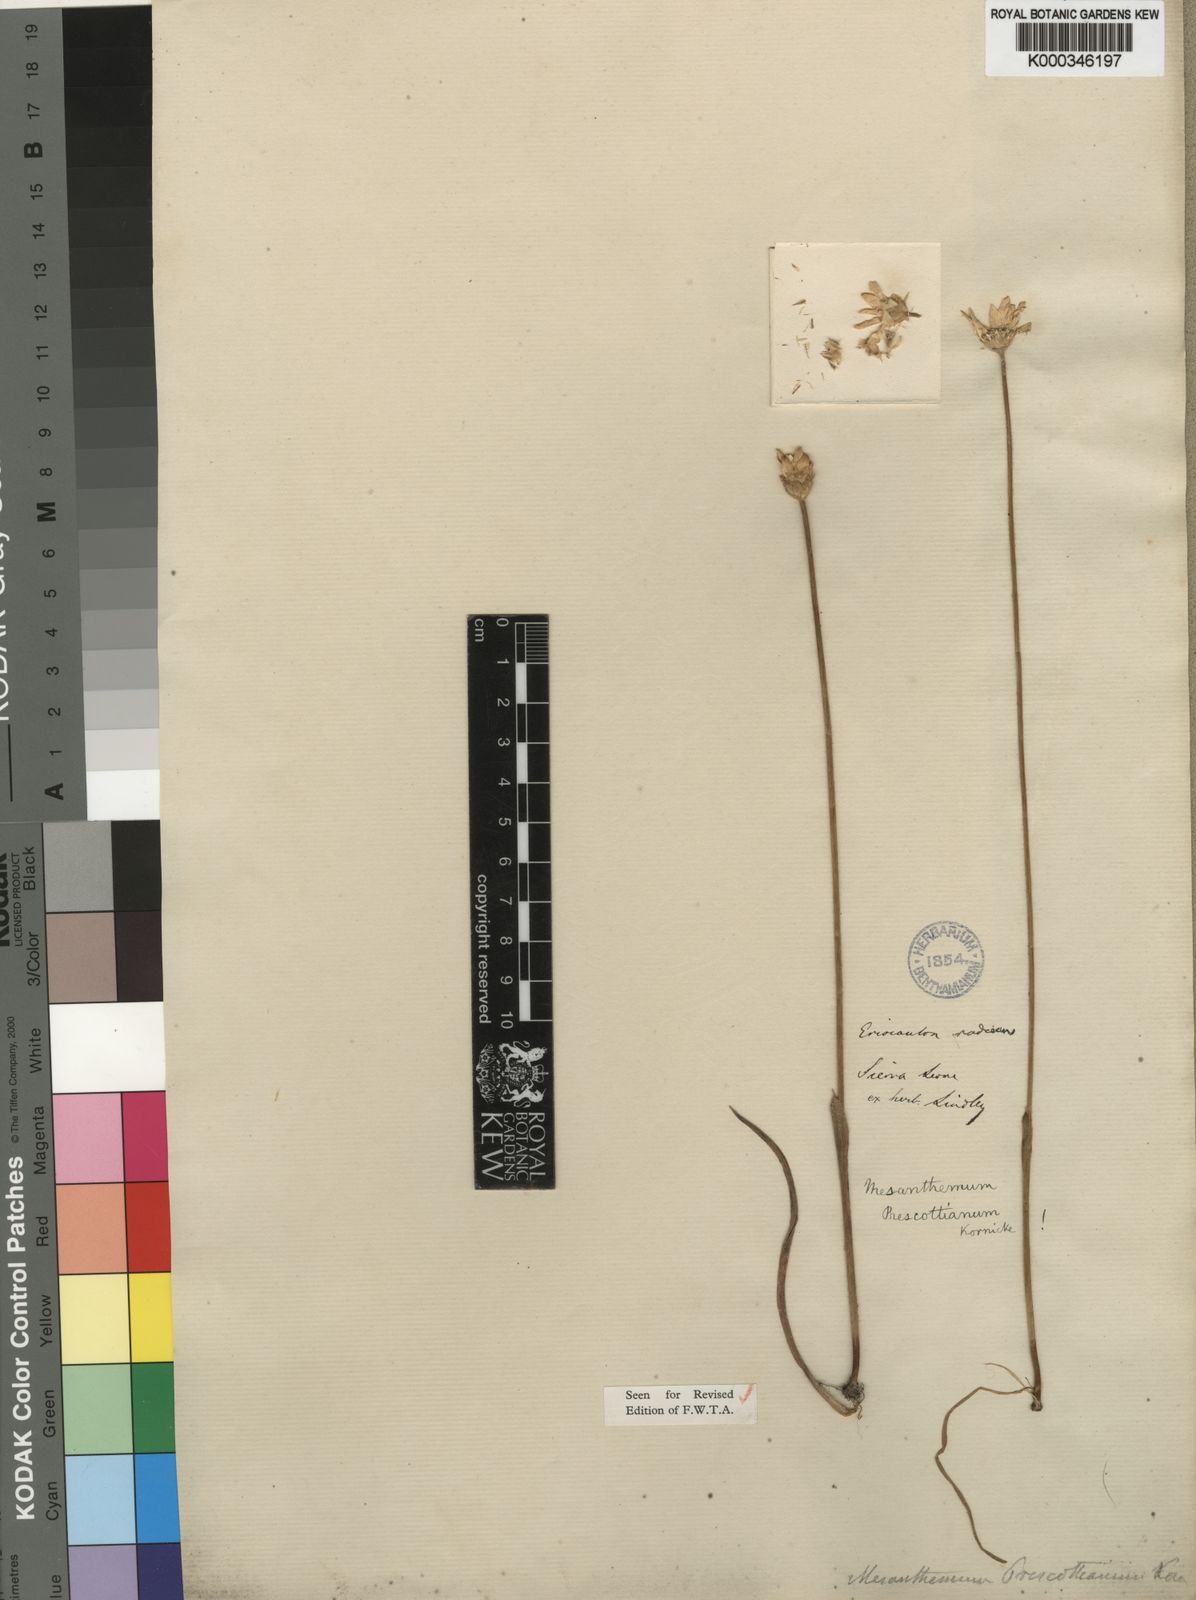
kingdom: Plantae
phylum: Tracheophyta
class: Liliopsida
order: Poales
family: Eriocaulaceae
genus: Mesanthemum
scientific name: Mesanthemum
